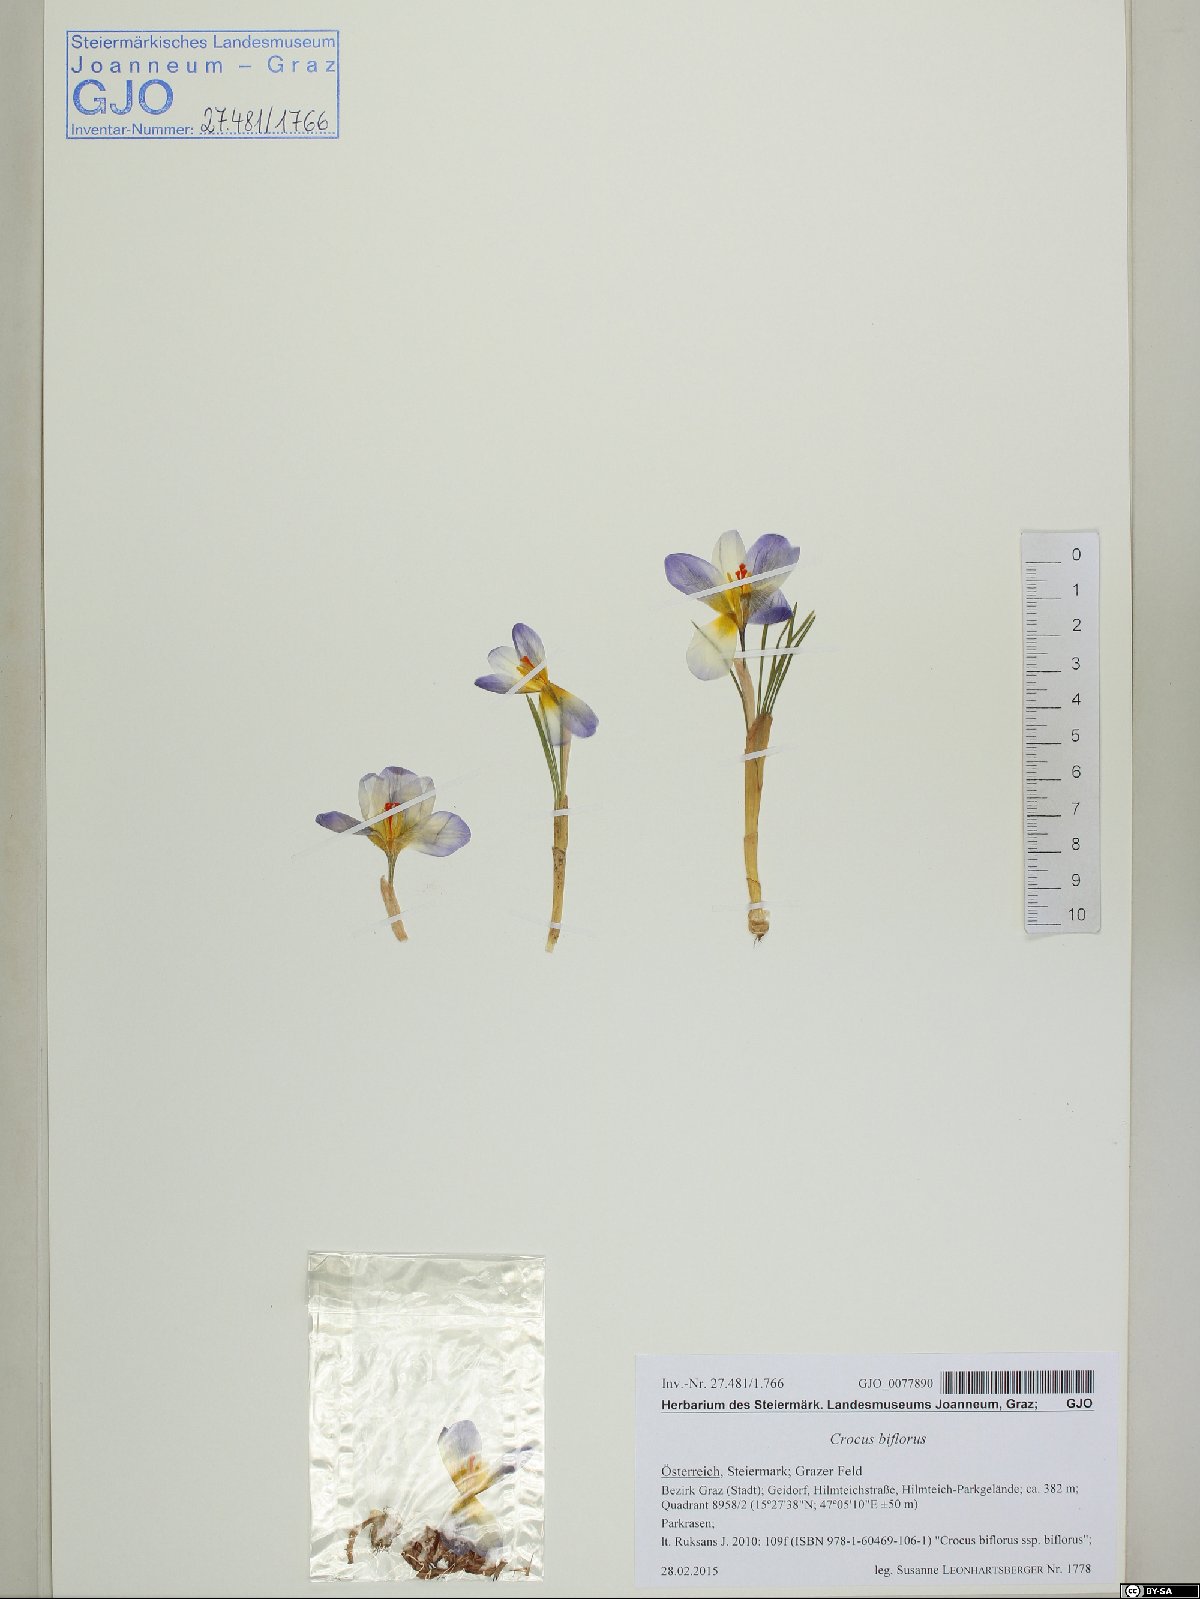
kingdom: Plantae
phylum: Tracheophyta
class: Liliopsida
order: Asparagales
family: Iridaceae
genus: Crocus
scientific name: Crocus biflorus
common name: Silvery crocus
